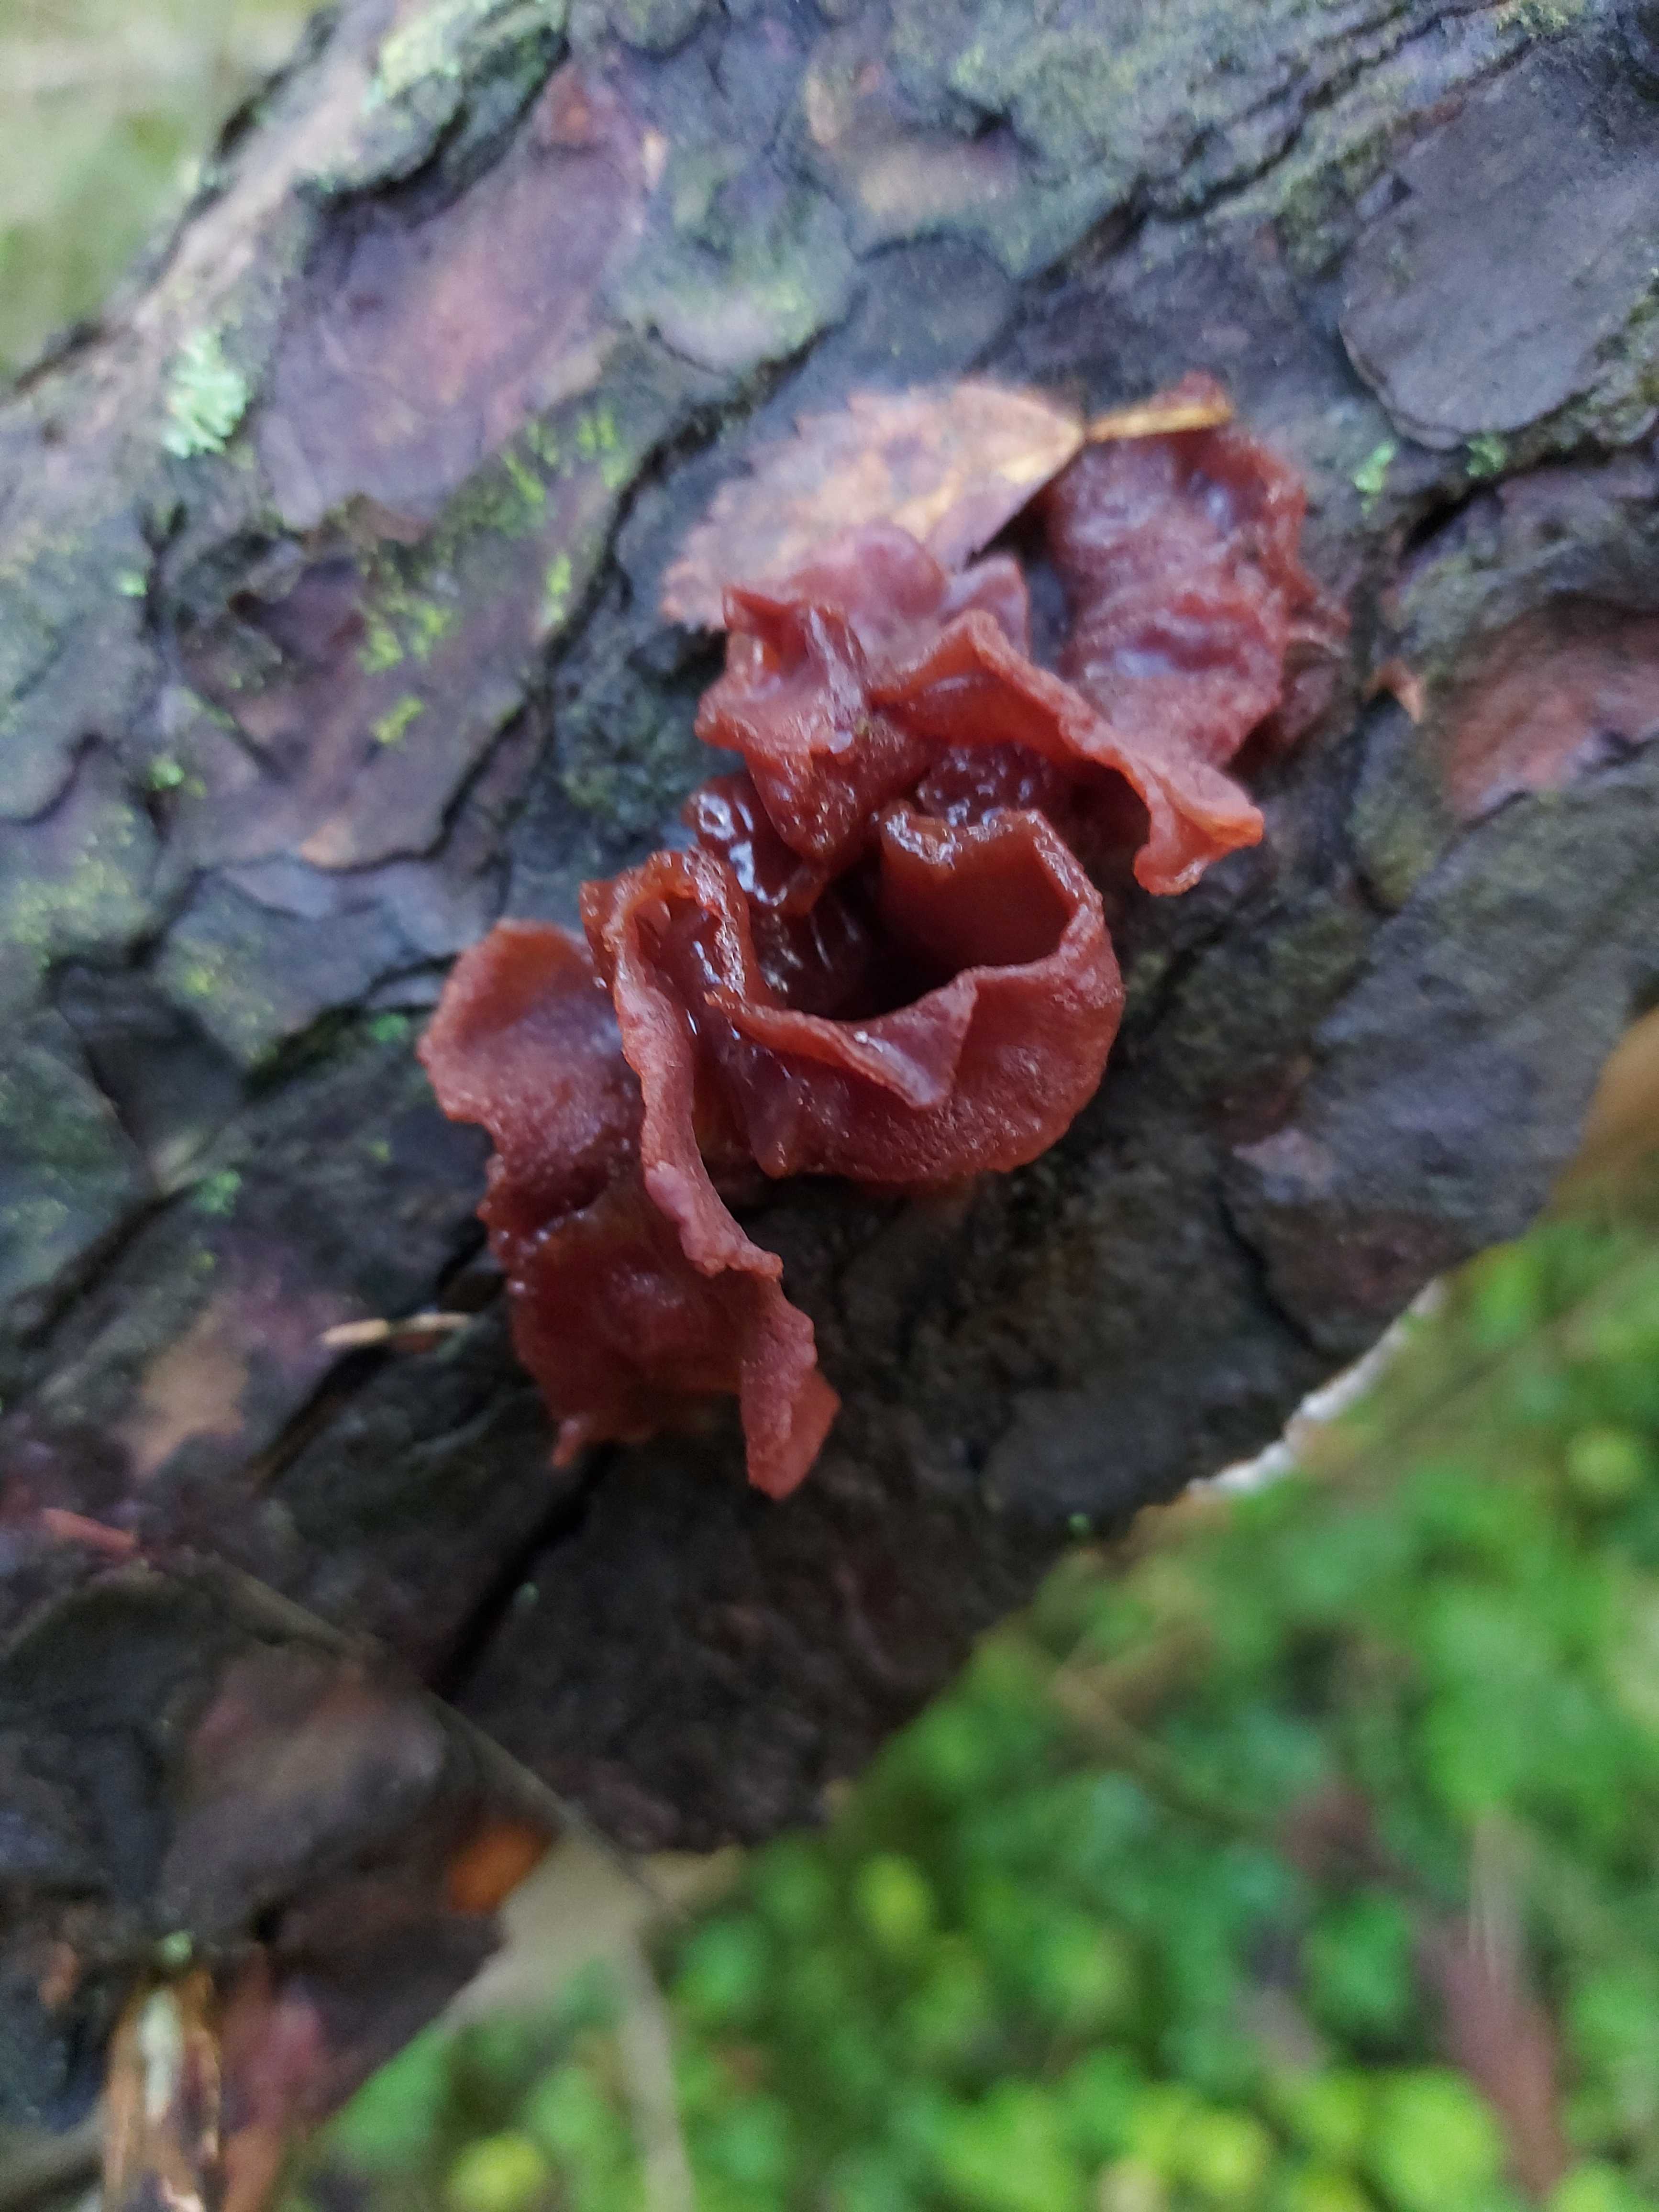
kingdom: Fungi
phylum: Basidiomycota
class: Tremellomycetes
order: Tremellales
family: Tremellaceae
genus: Phaeotremella
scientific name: Phaeotremella foliacea
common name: brun bævresvamp
